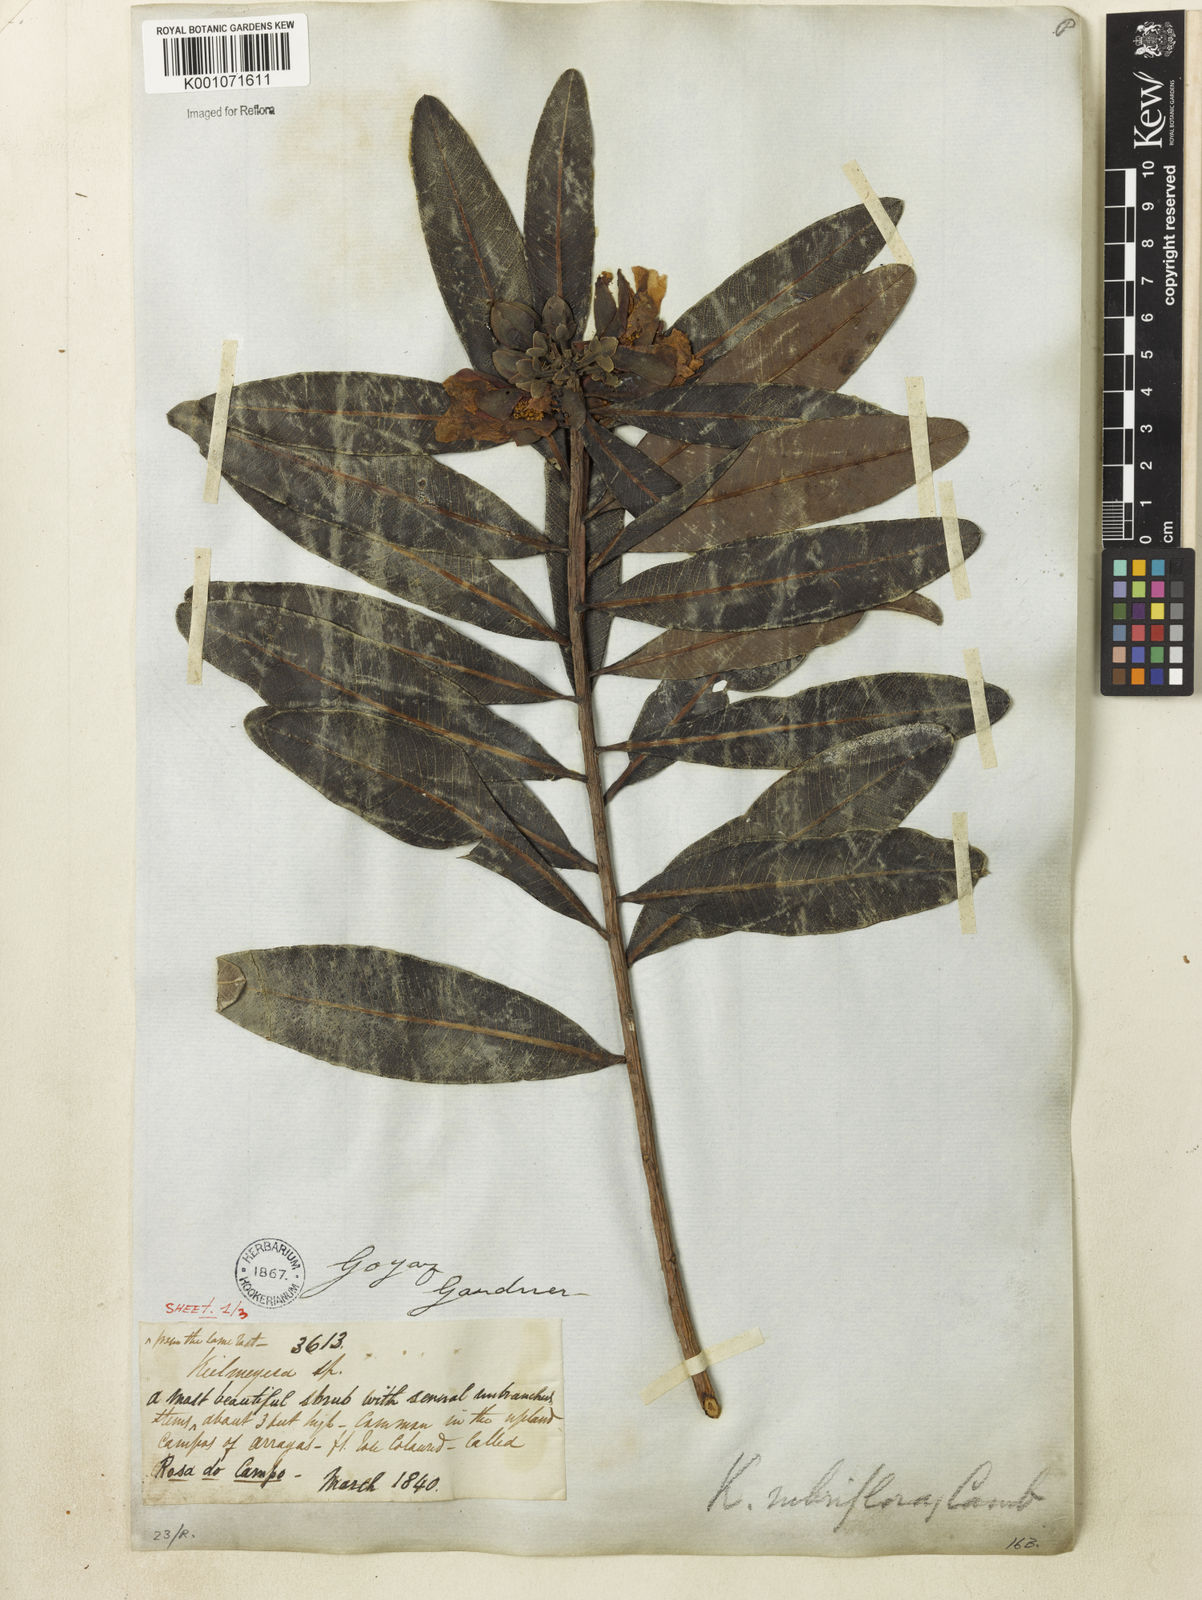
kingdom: Plantae
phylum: Tracheophyta
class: Magnoliopsida
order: Malpighiales
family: Calophyllaceae
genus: Kielmeyera
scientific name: Kielmeyera rubriflora
